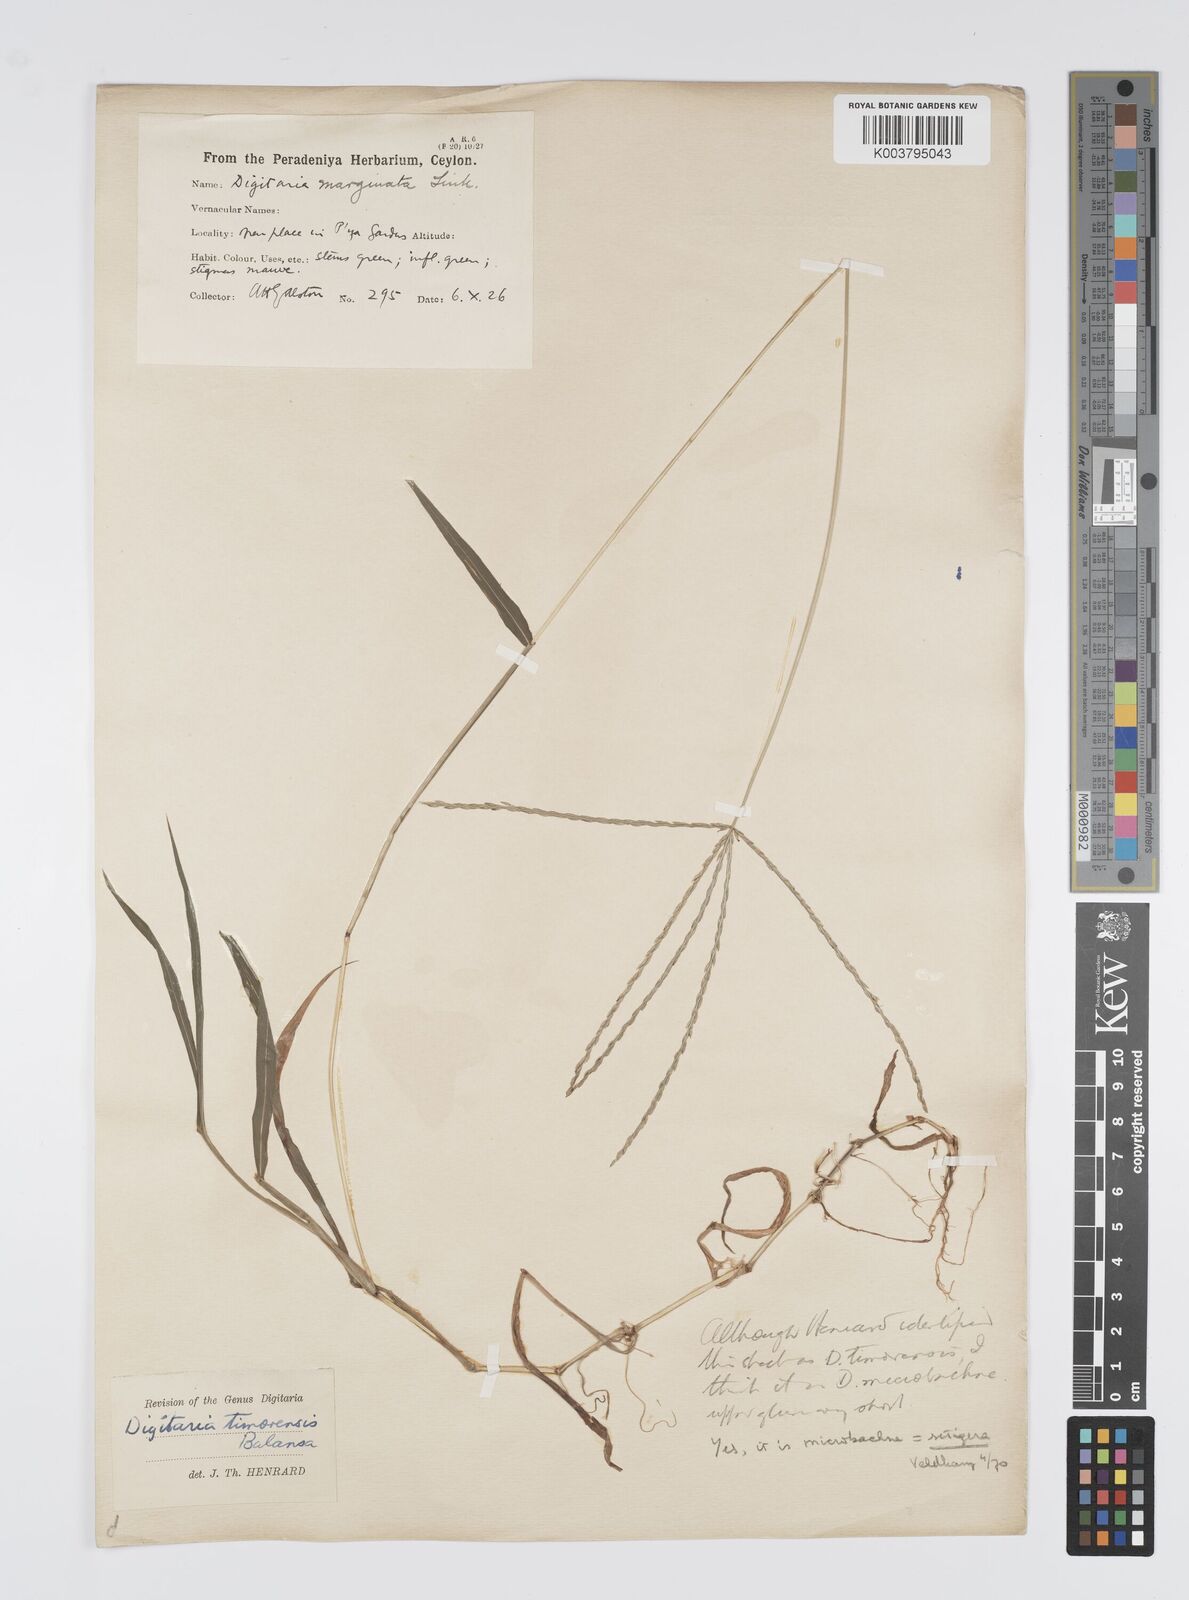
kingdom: Plantae
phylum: Tracheophyta
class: Liliopsida
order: Poales
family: Poaceae
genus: Digitaria
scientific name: Digitaria setigera
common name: East indian crabgrass
